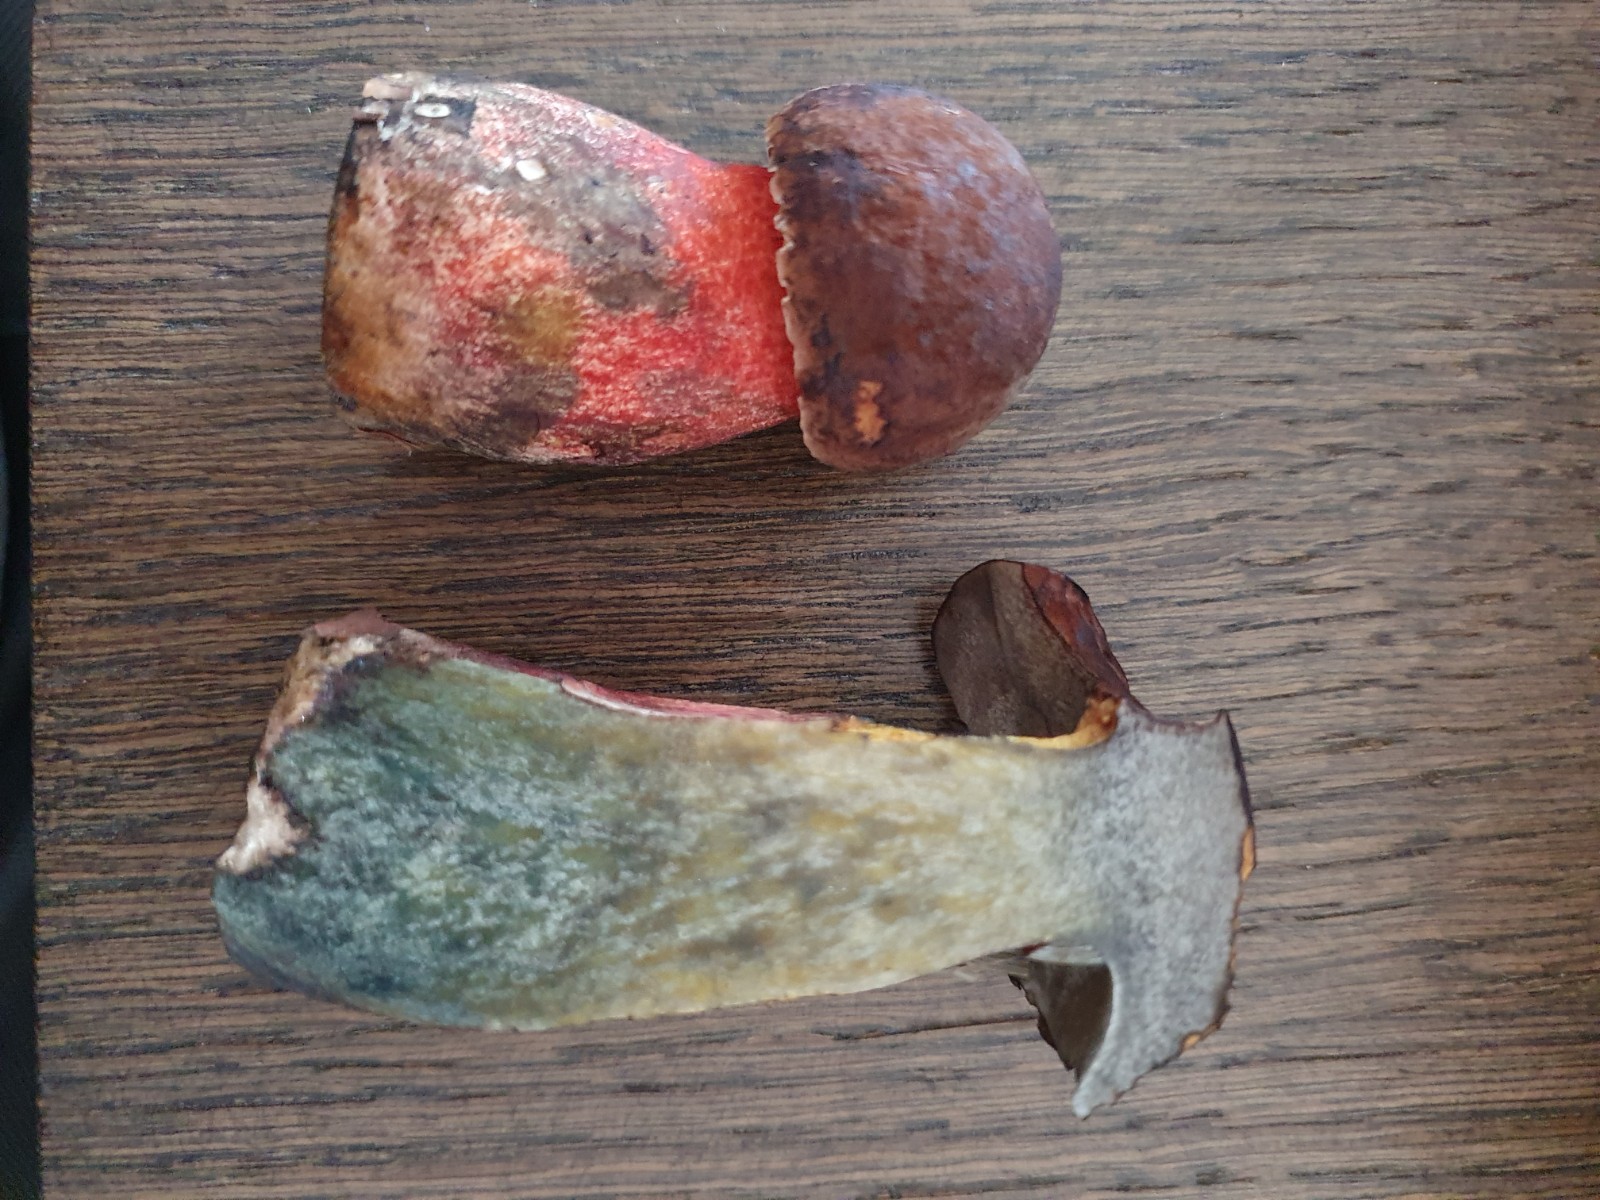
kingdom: Fungi
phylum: Basidiomycota
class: Agaricomycetes
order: Boletales
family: Boletaceae
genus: Neoboletus
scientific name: Neoboletus erythropus
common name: punktstokket indigorørhat
